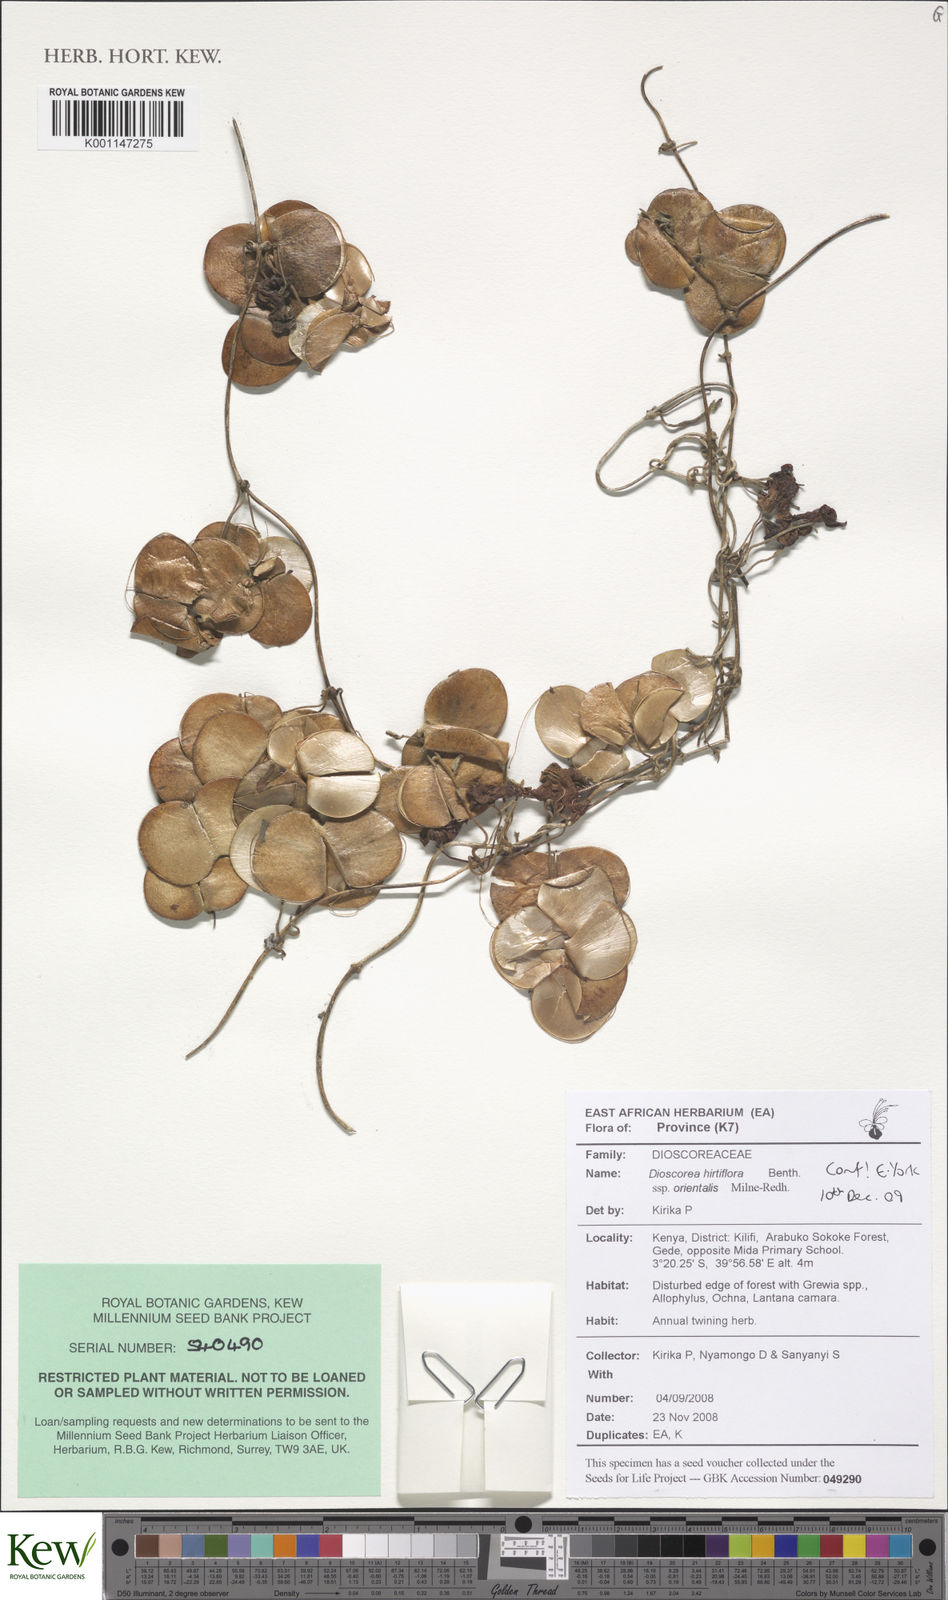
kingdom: Plantae
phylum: Tracheophyta
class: Liliopsida
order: Dioscoreales
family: Dioscoreaceae
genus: Dioscorea
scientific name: Dioscorea hirtiflora
